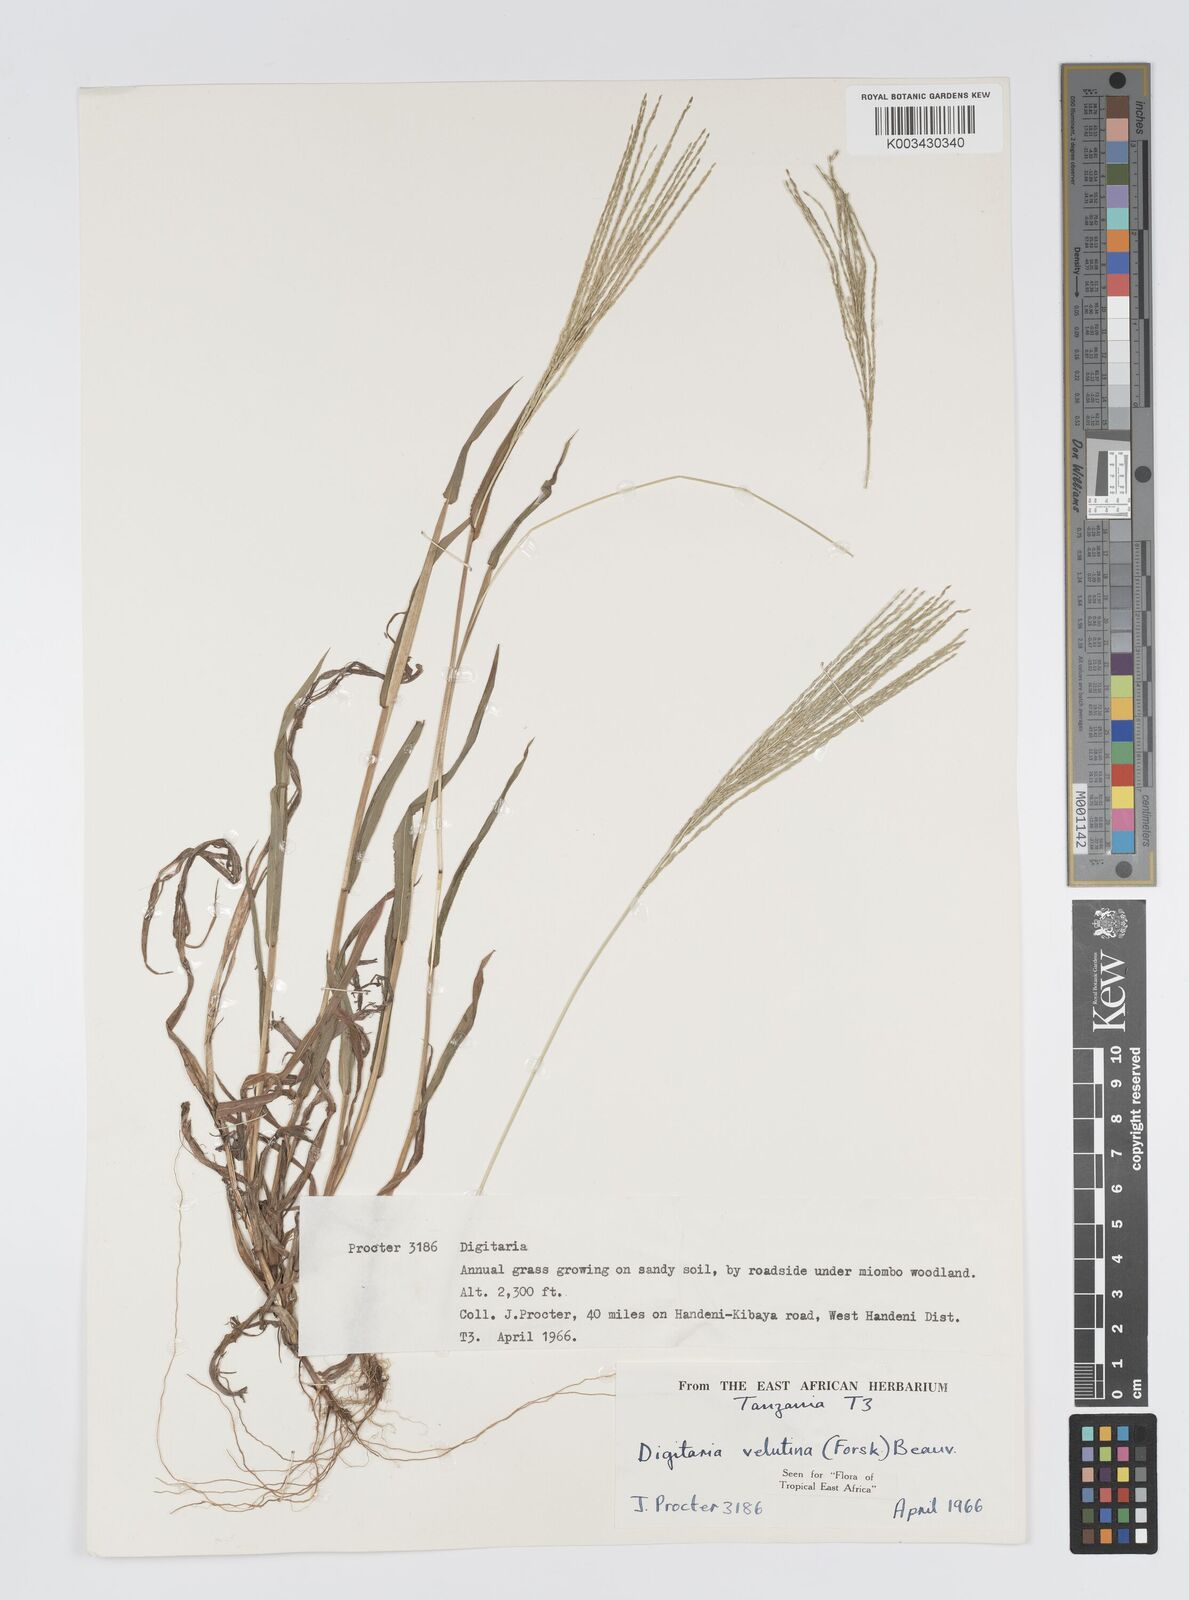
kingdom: Plantae
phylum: Tracheophyta
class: Liliopsida
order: Poales
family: Poaceae
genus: Digitaria
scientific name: Digitaria velutina
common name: Long-plume finger grass
